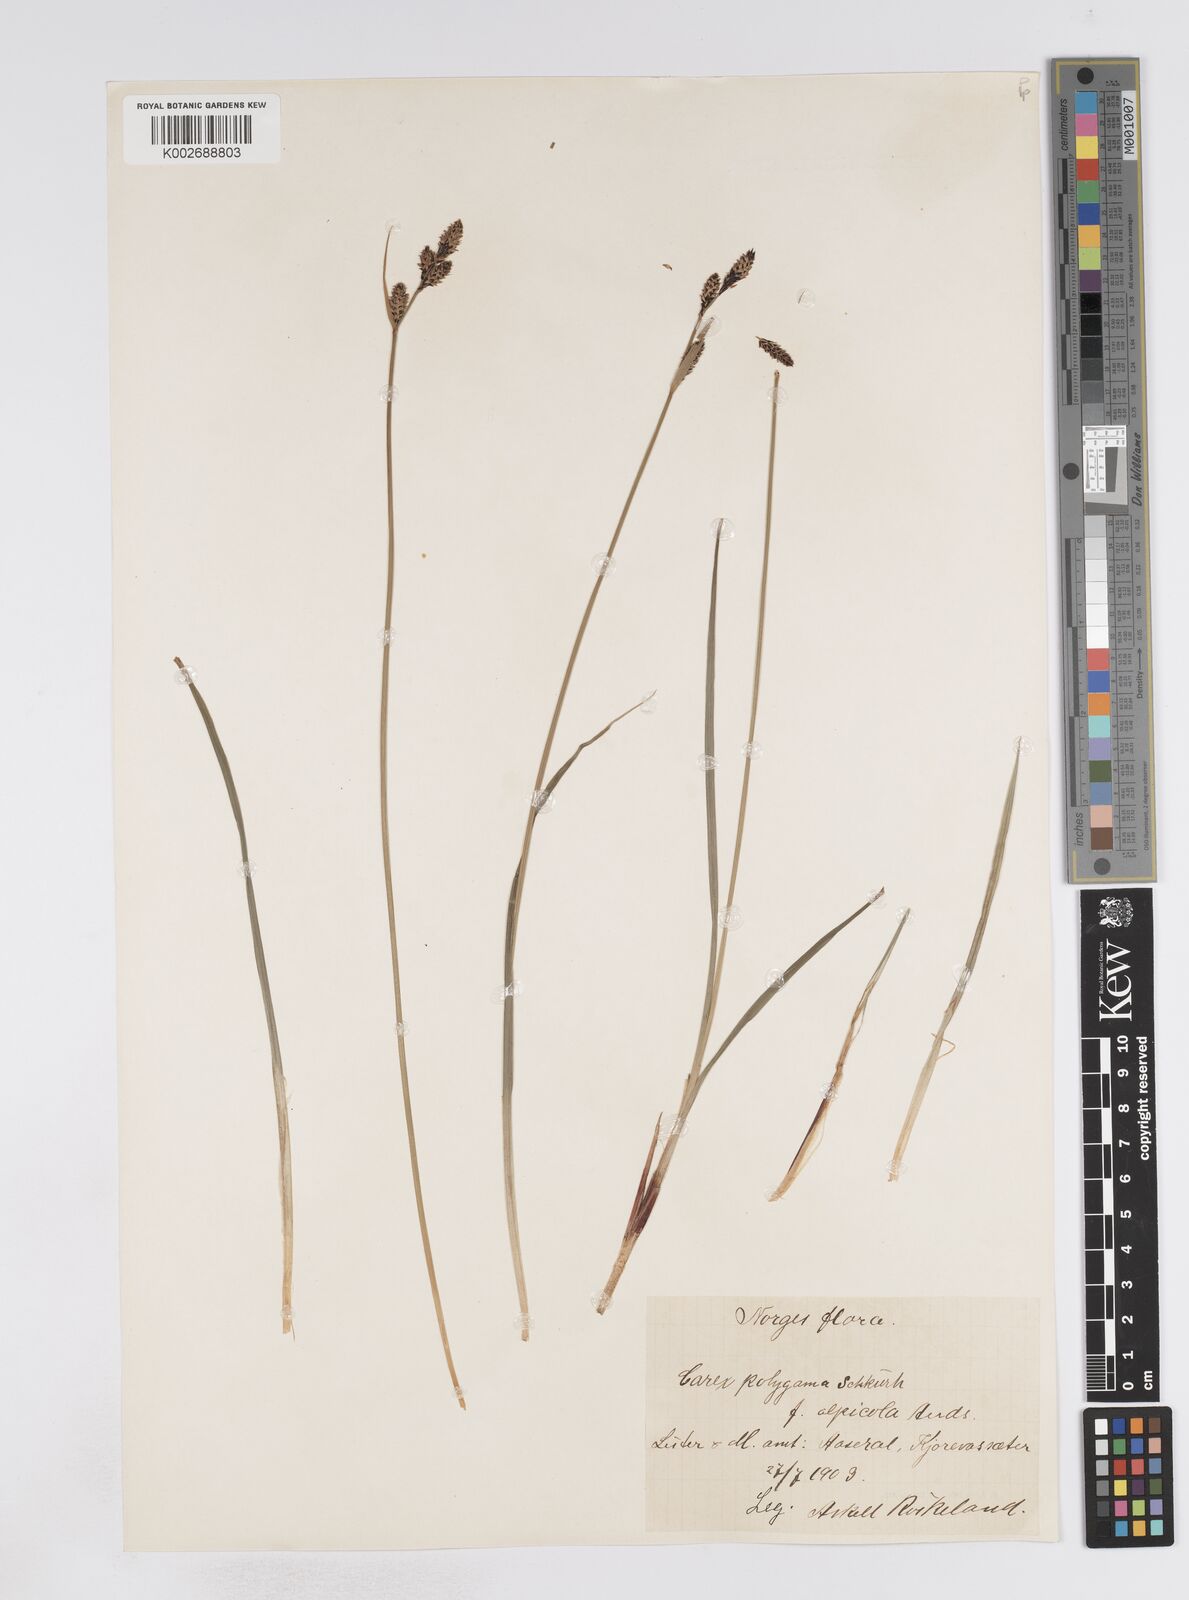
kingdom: Plantae
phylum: Tracheophyta
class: Liliopsida
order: Poales
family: Cyperaceae
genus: Carex
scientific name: Carex buxbaumii
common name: Club sedge
